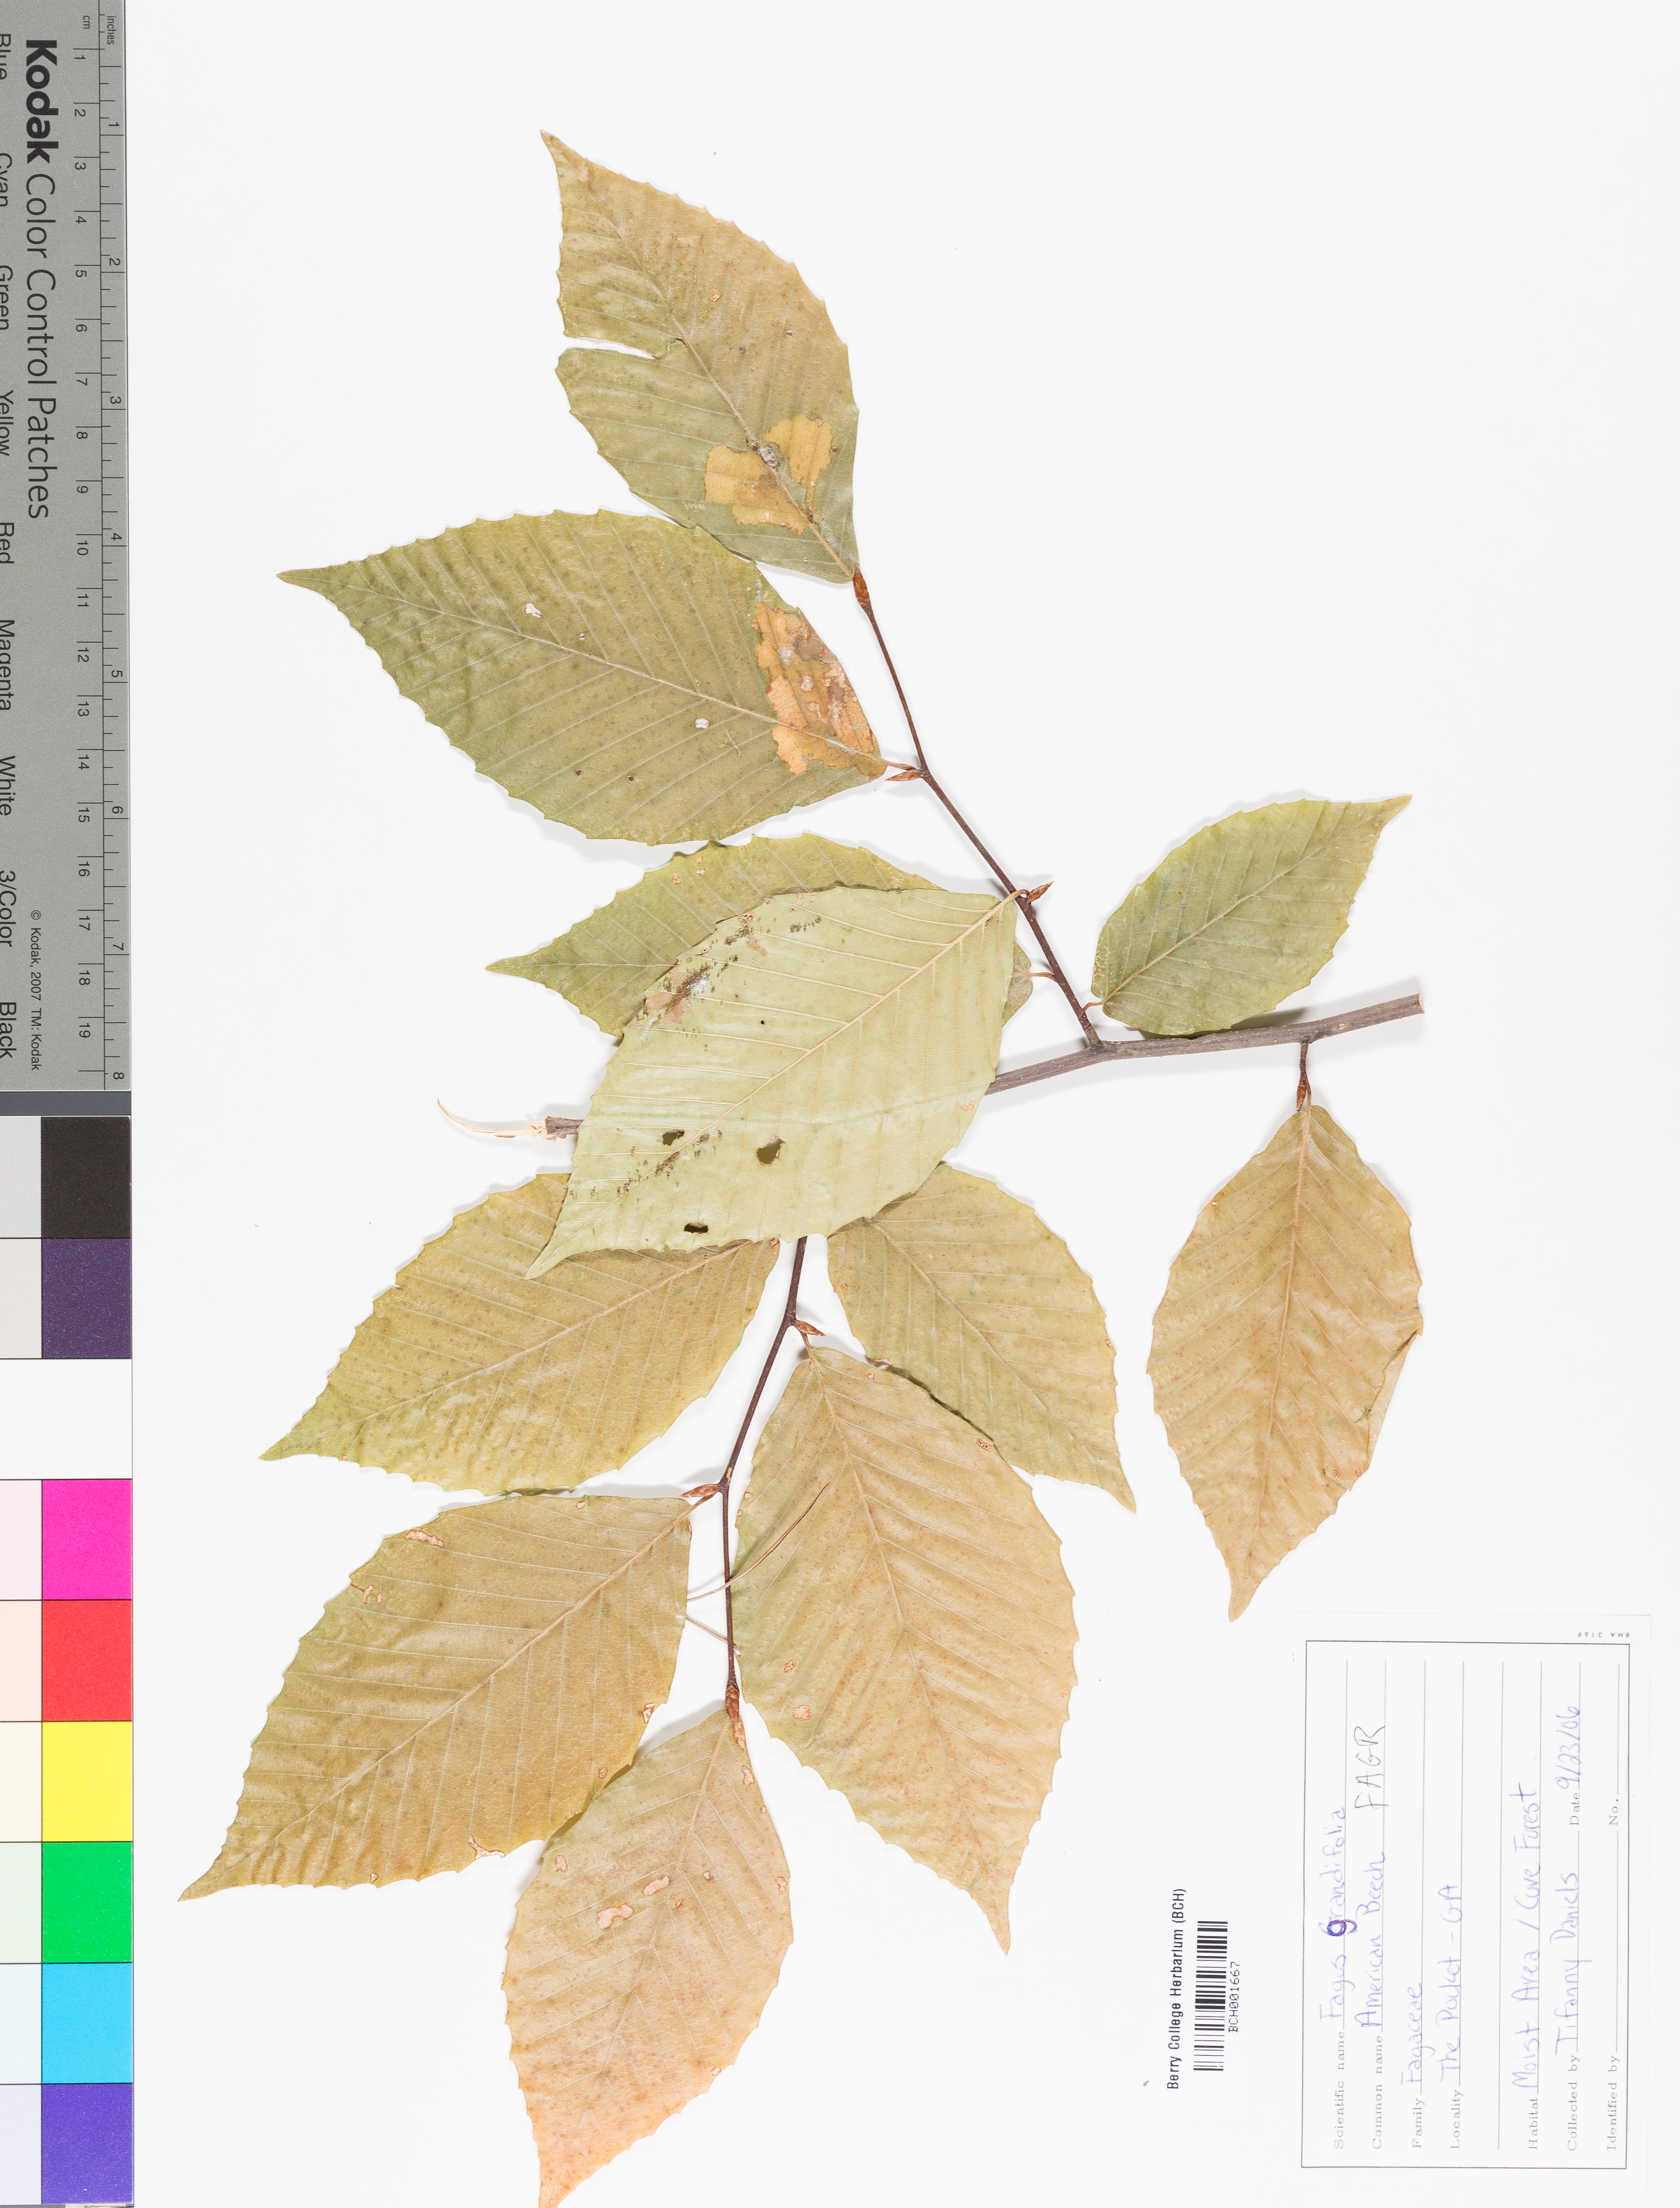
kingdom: Plantae
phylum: Tracheophyta
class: Magnoliopsida
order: Fagales
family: Fagaceae
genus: Fagus
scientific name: Fagus grandifolia
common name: American beech
